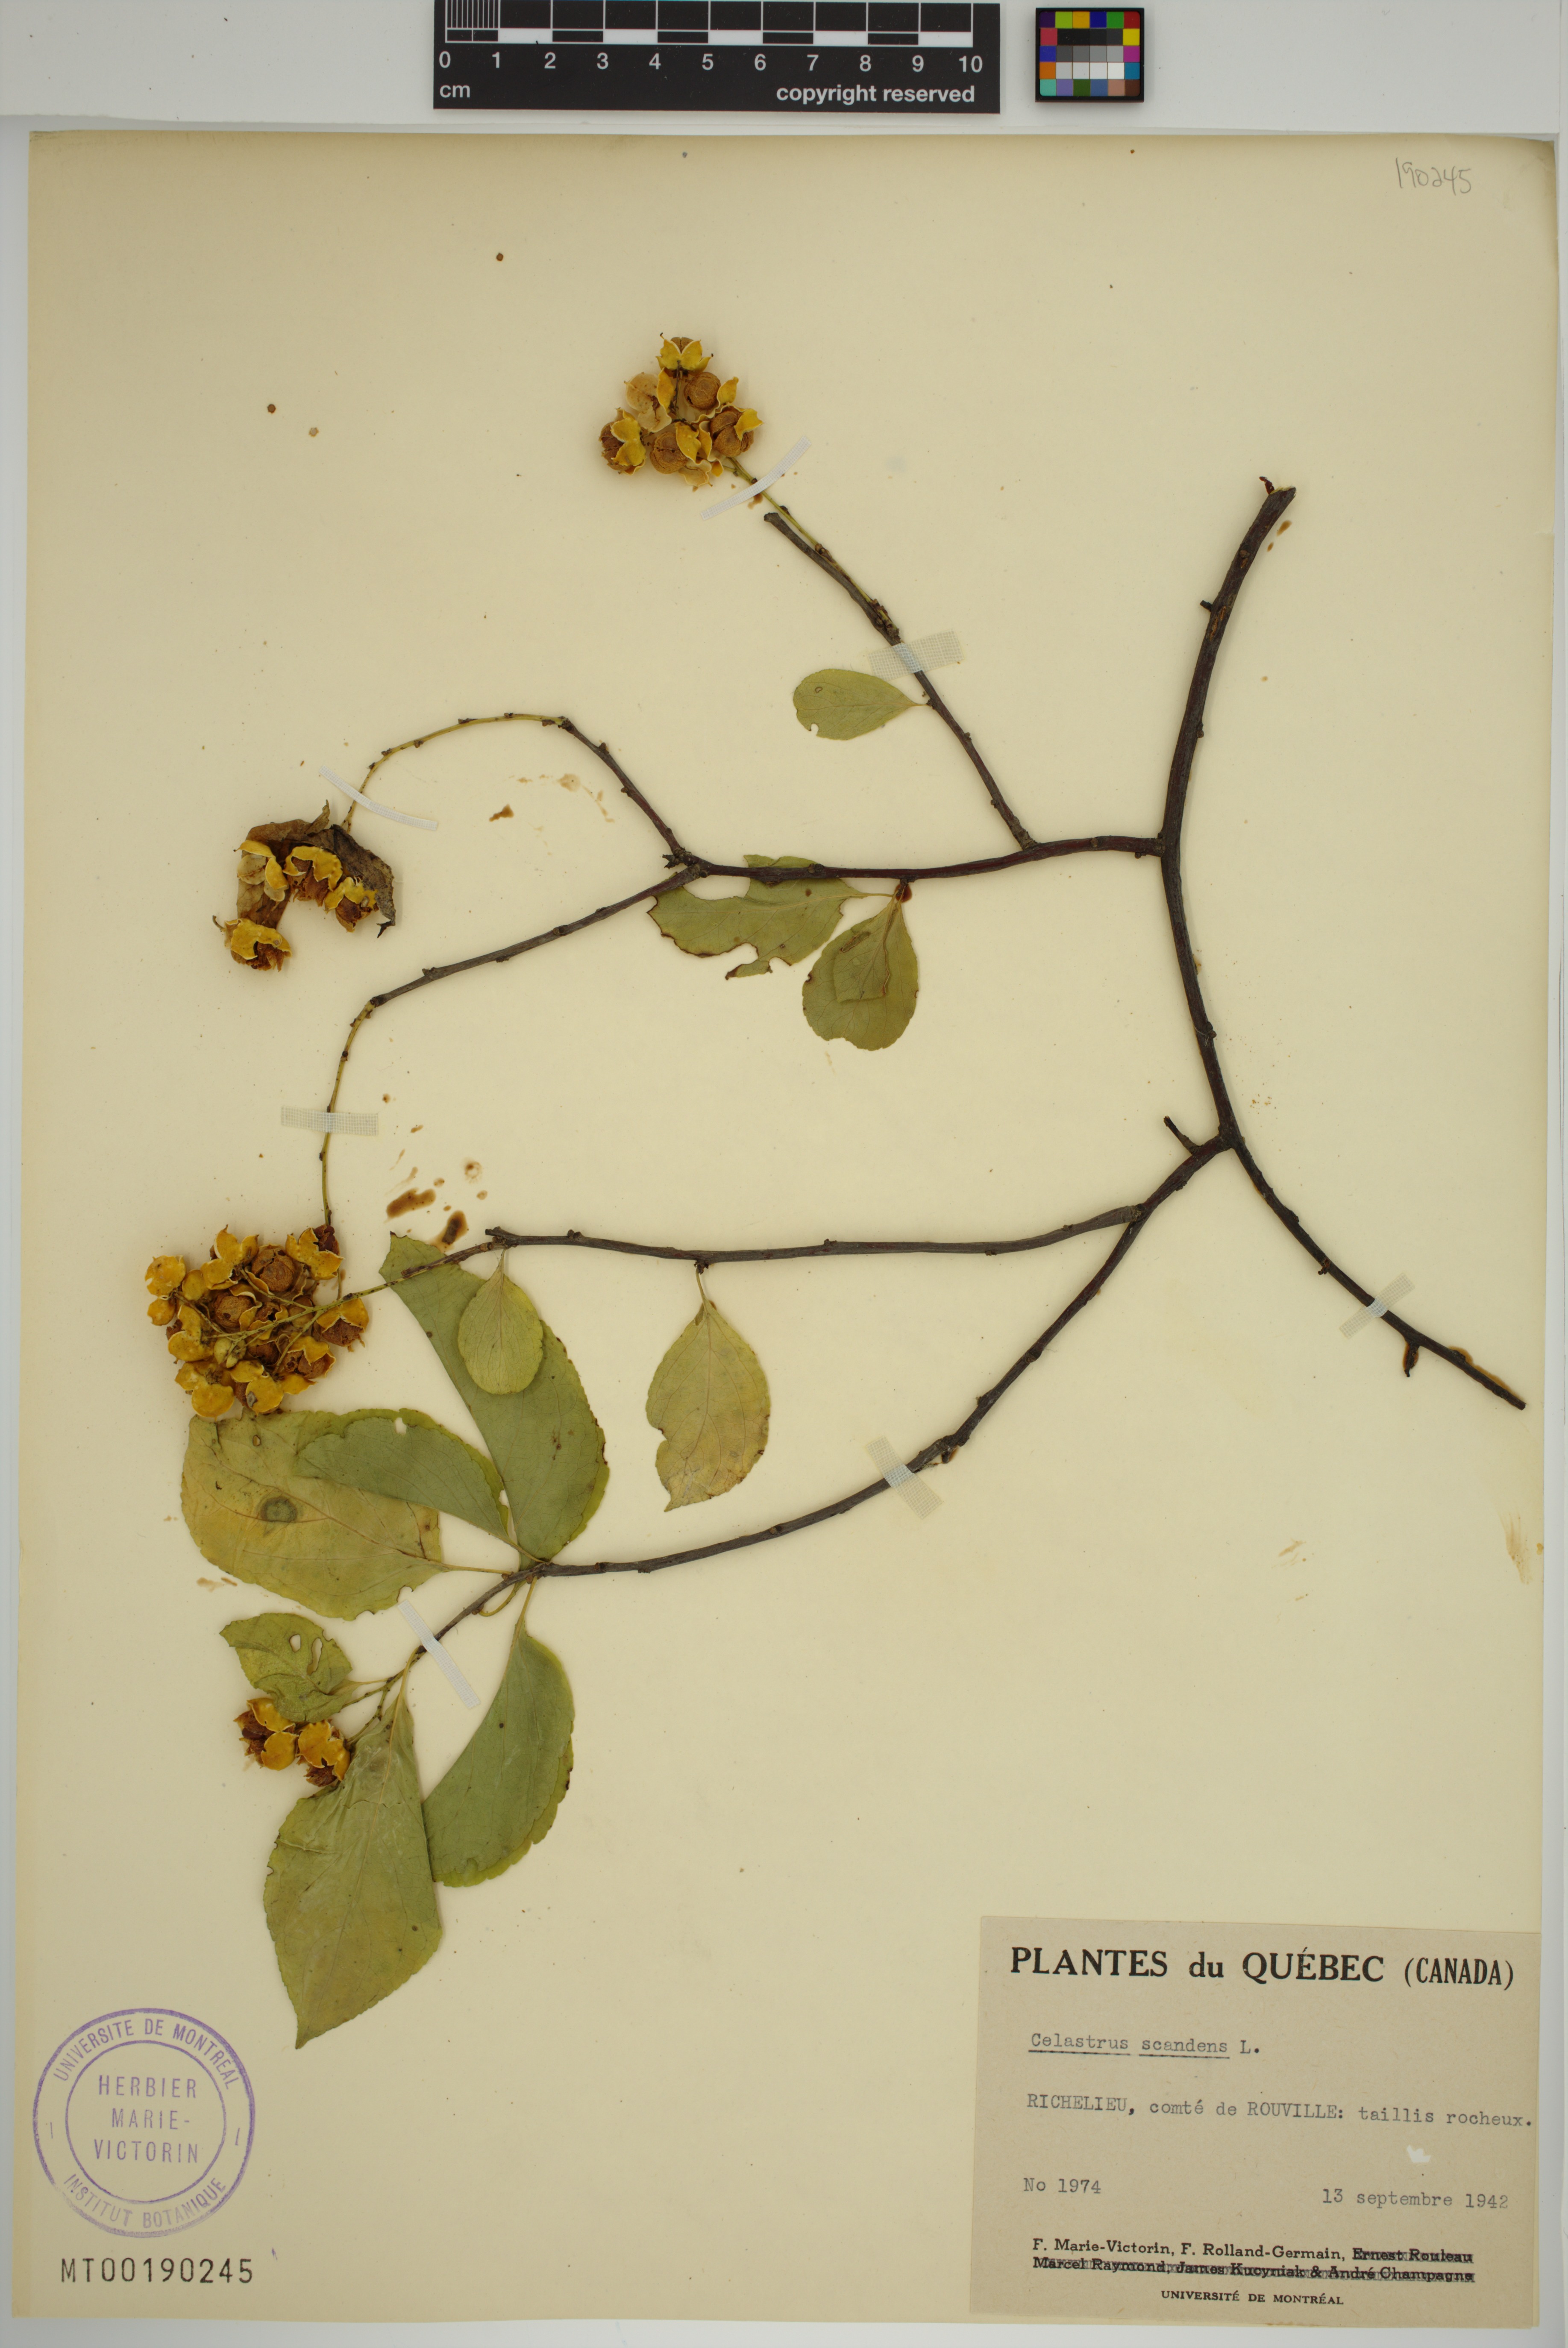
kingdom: Plantae
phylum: Tracheophyta
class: Magnoliopsida
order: Celastrales
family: Celastraceae
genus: Celastrus
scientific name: Celastrus scandens
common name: American bittersweet
